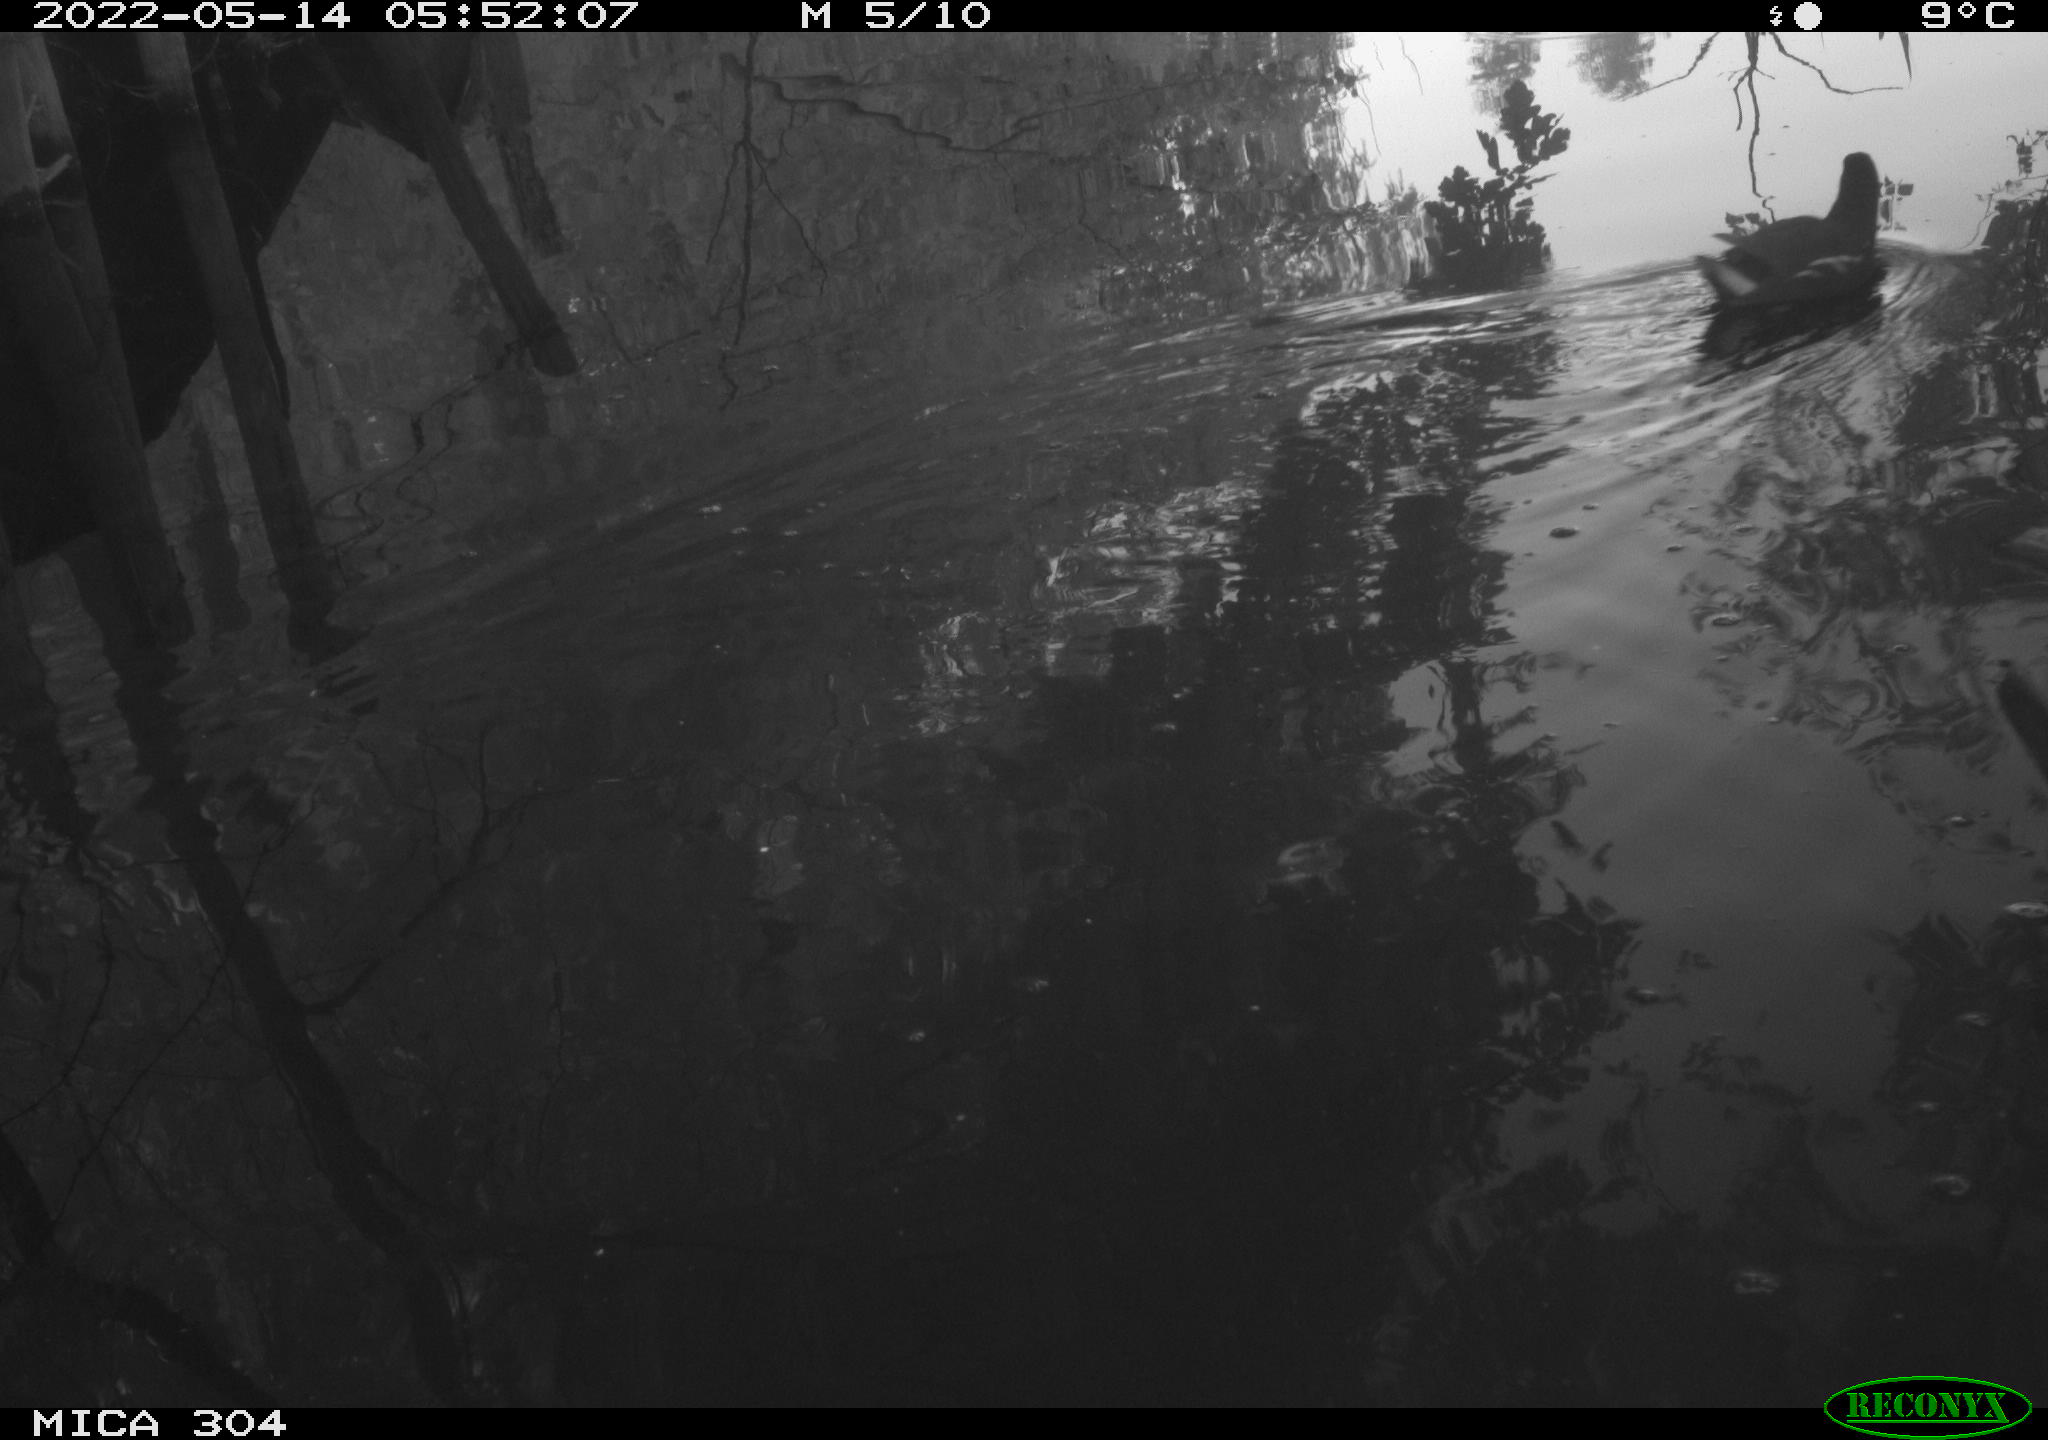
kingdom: Animalia
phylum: Chordata
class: Aves
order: Gruiformes
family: Rallidae
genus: Gallinula
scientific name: Gallinula chloropus
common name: Common moorhen
